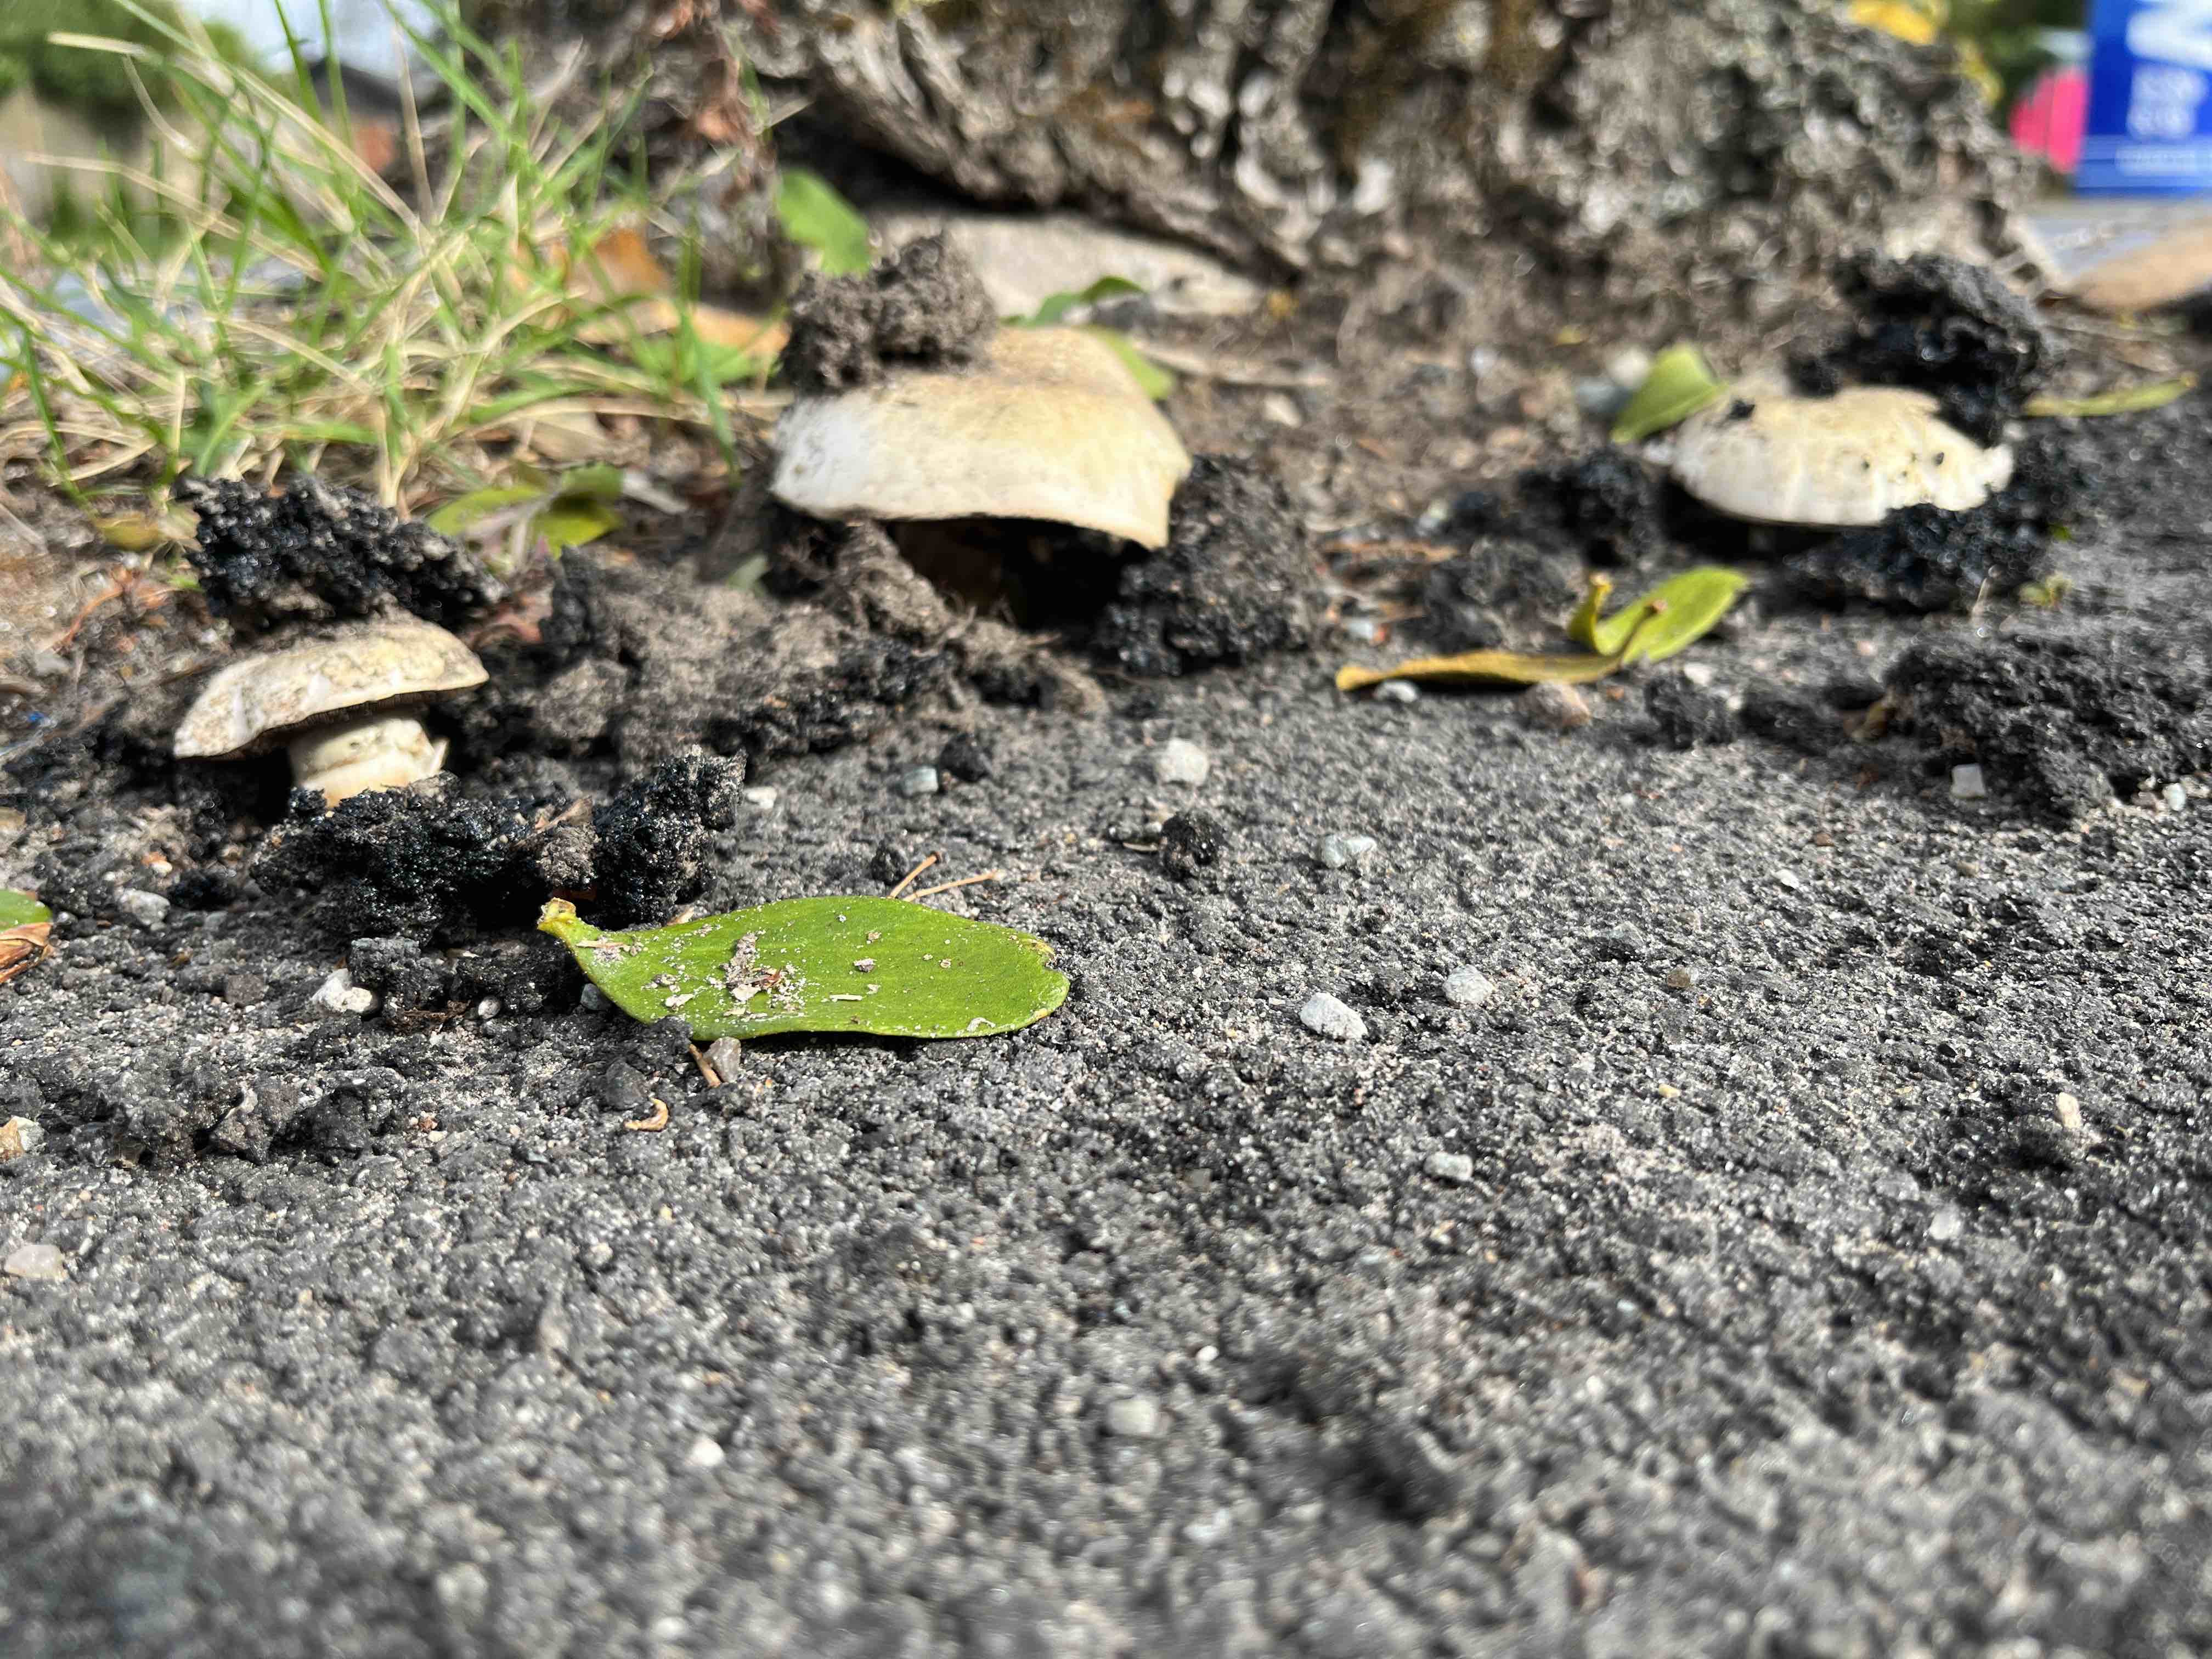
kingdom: Fungi
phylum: Basidiomycota
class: Agaricomycetes
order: Agaricales
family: Agaricaceae
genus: Agaricus
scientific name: Agaricus bitorquis
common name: vej-champignon
